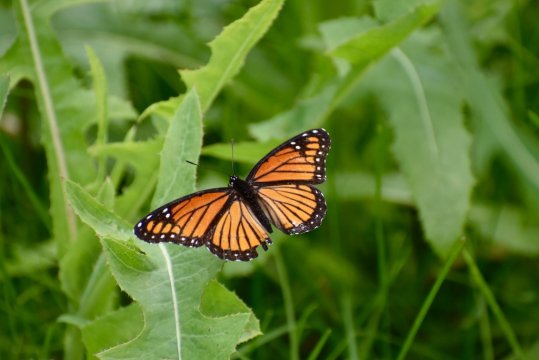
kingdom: Animalia
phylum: Arthropoda
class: Insecta
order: Lepidoptera
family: Nymphalidae
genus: Limenitis
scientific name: Limenitis archippus
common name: Viceroy
